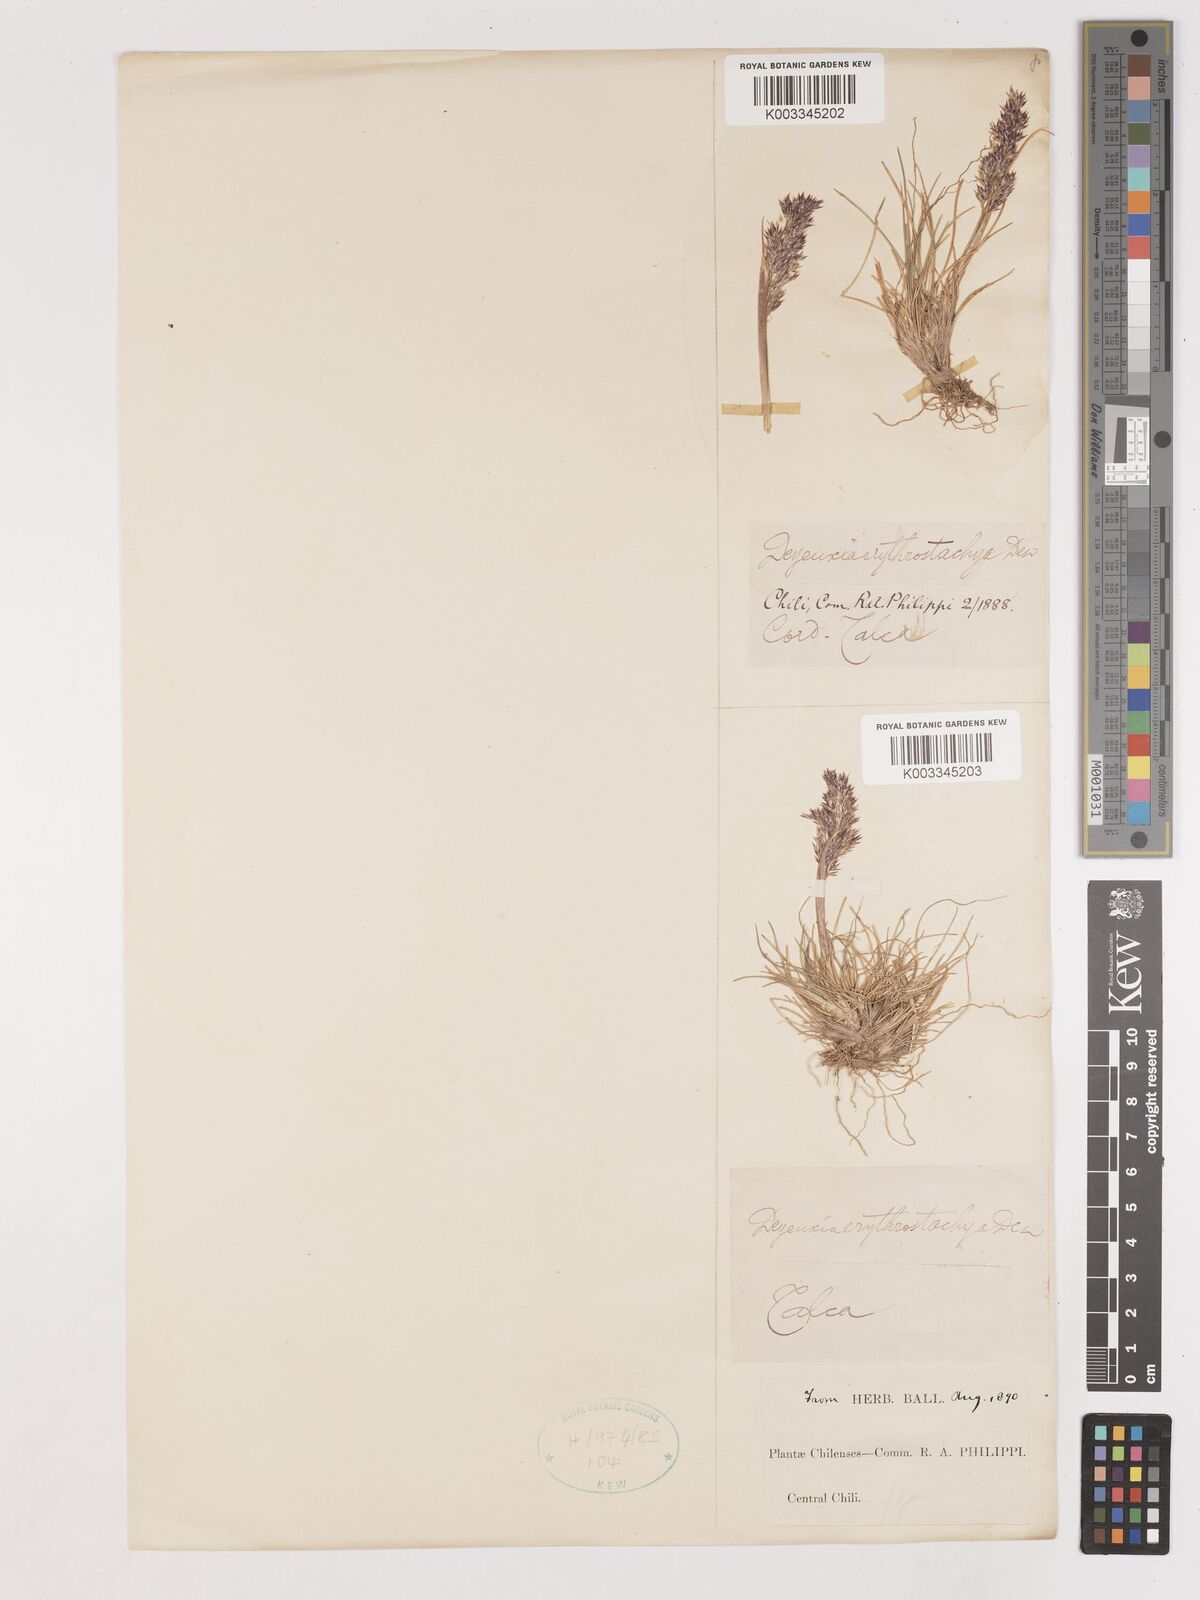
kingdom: Plantae
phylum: Tracheophyta
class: Liliopsida
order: Poales
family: Poaceae
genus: Calamagrostis
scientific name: Calamagrostis
